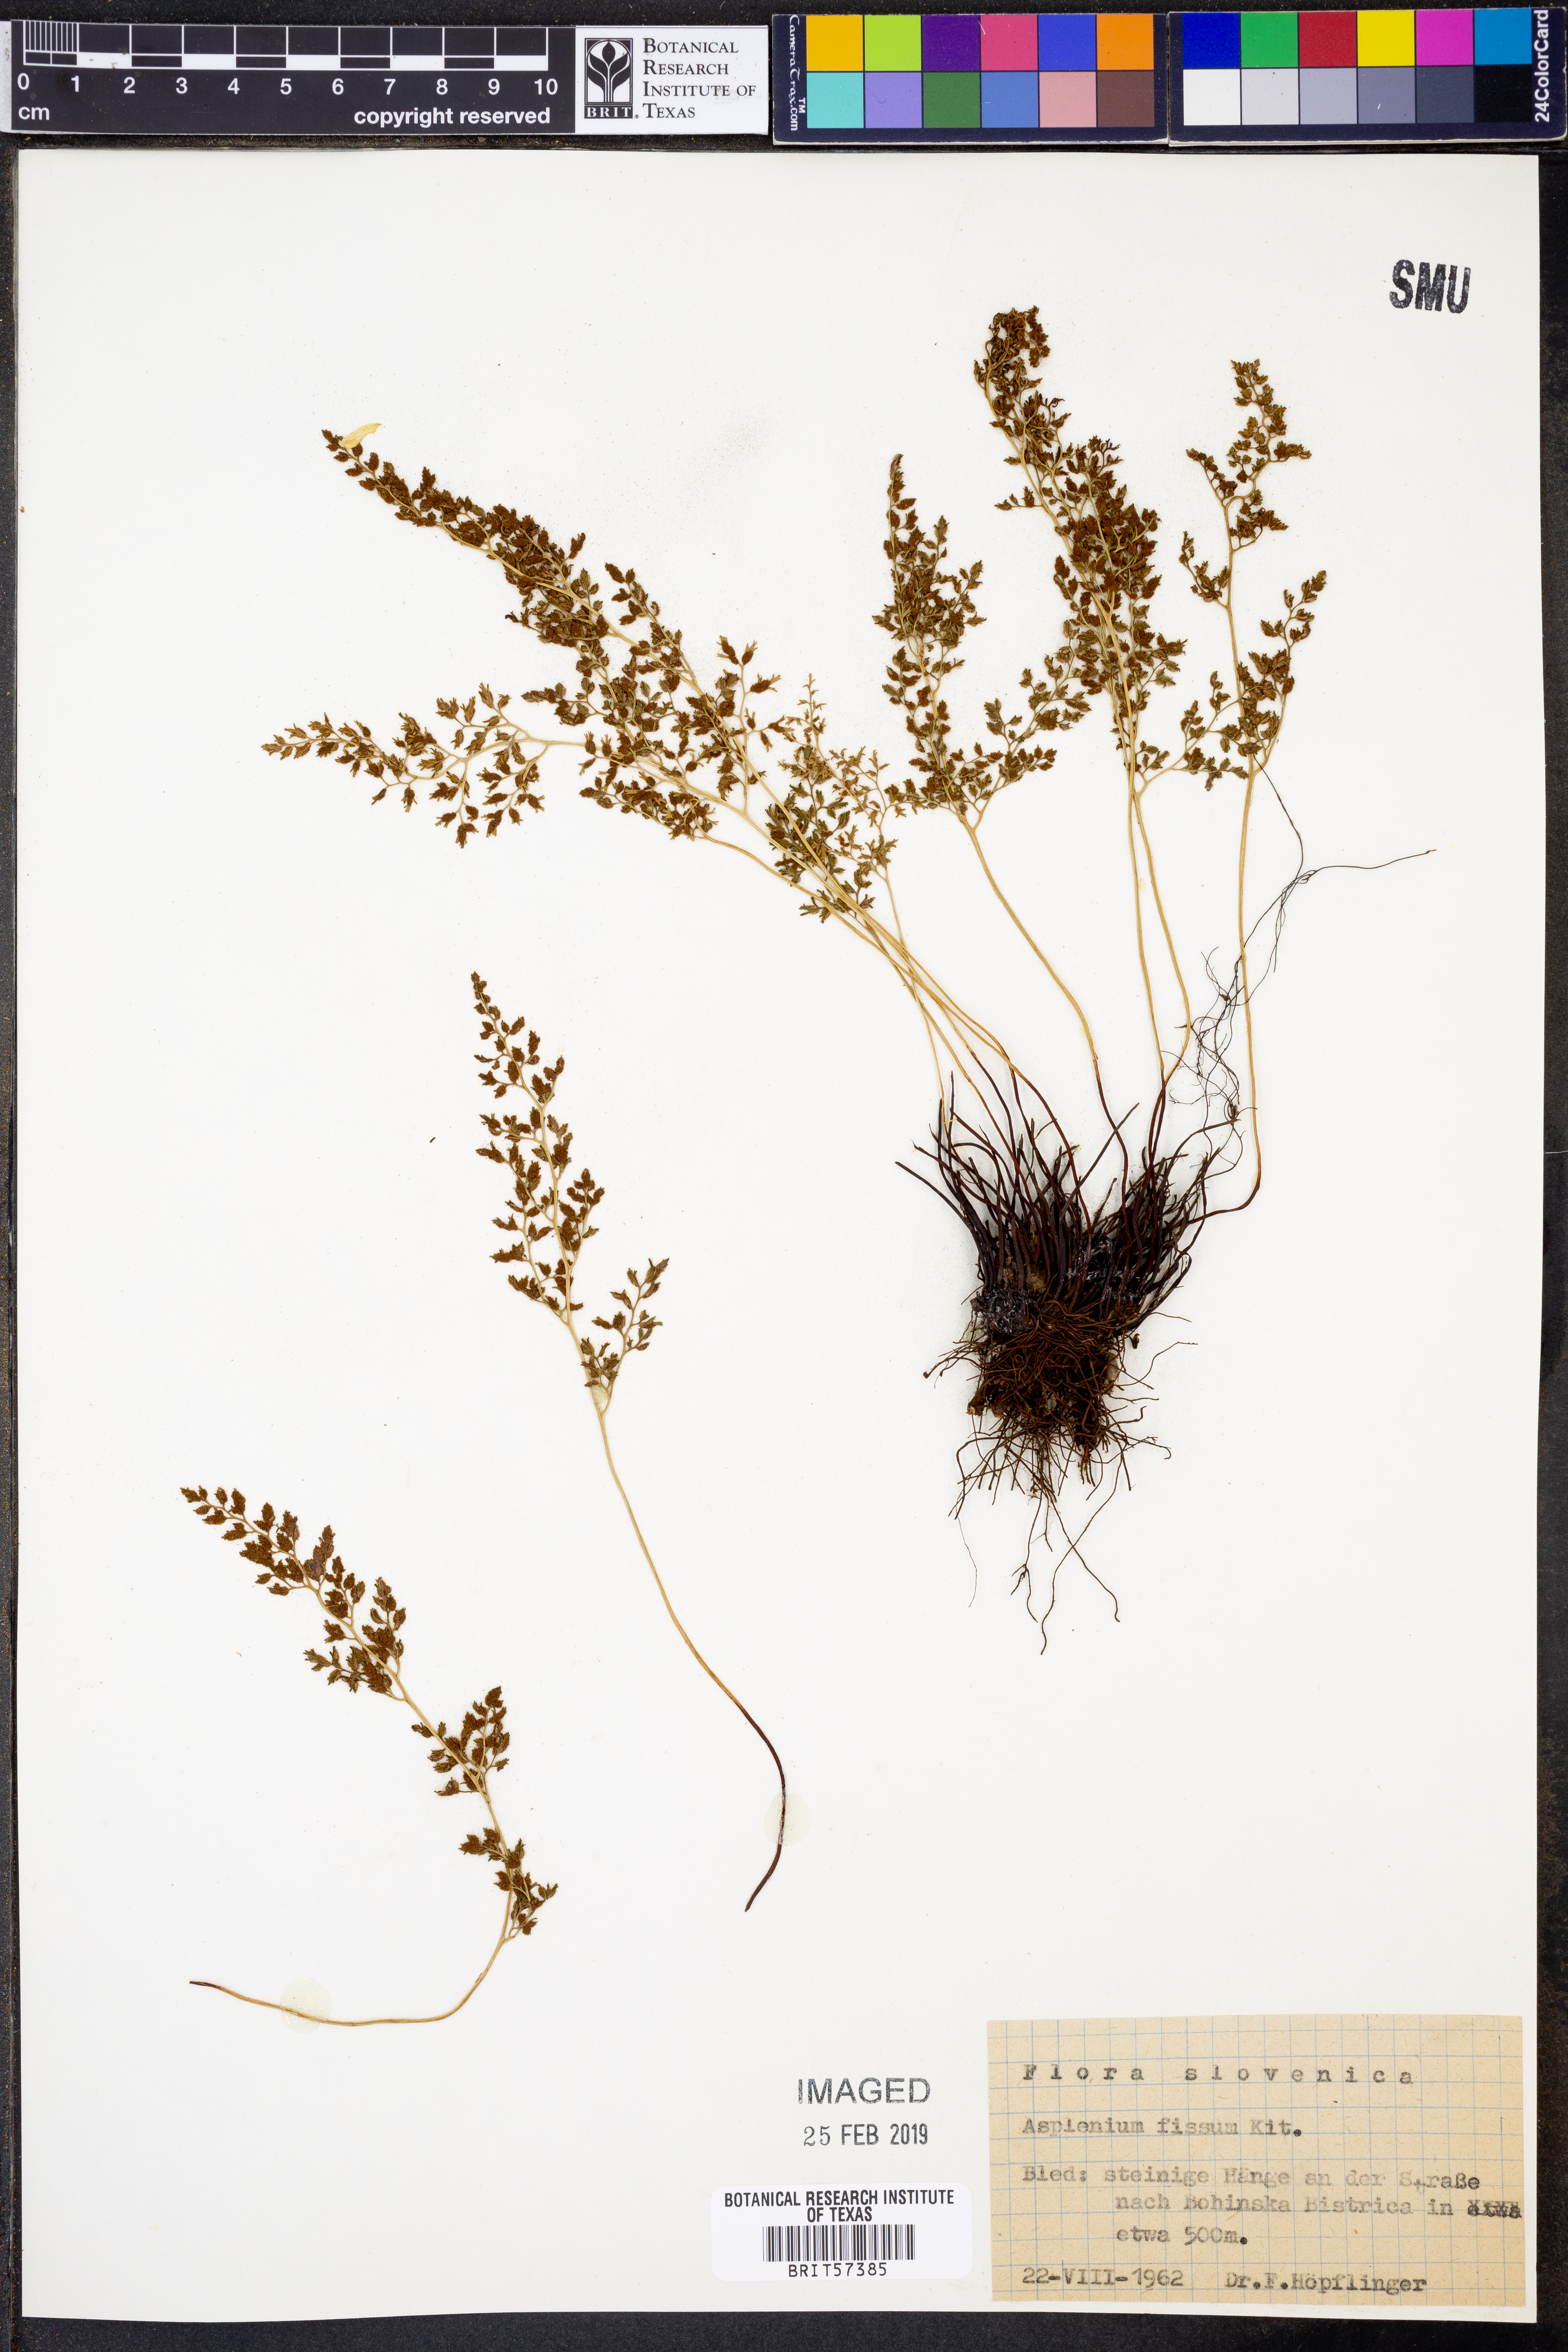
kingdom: Plantae
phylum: Tracheophyta
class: Polypodiopsida
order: Polypodiales
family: Aspleniaceae
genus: Asplenium
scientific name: Asplenium fissum
